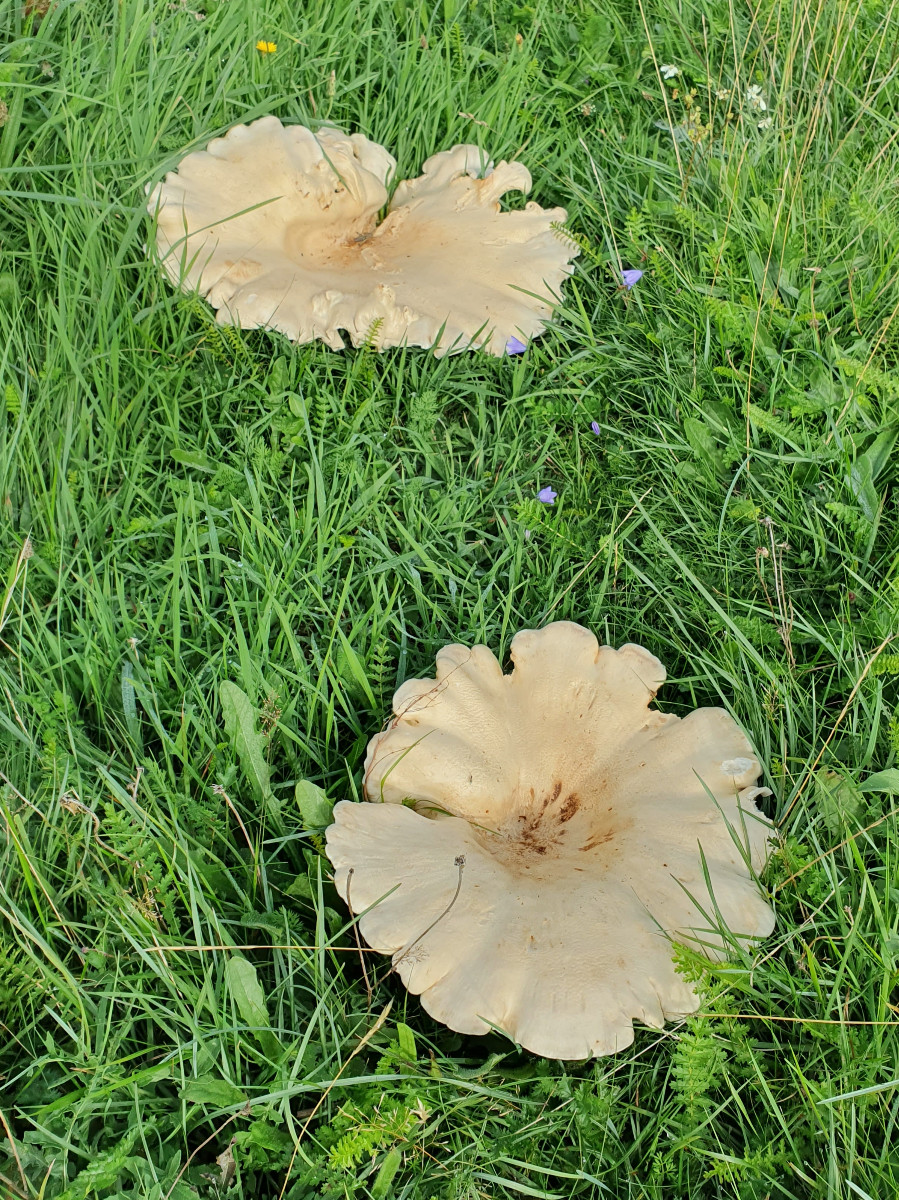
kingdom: Fungi
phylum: Basidiomycota
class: Agaricomycetes
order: Agaricales
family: Tricholomataceae
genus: Aspropaxillus
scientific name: Aspropaxillus giganteus
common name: kæmpe-tragtridderhat
